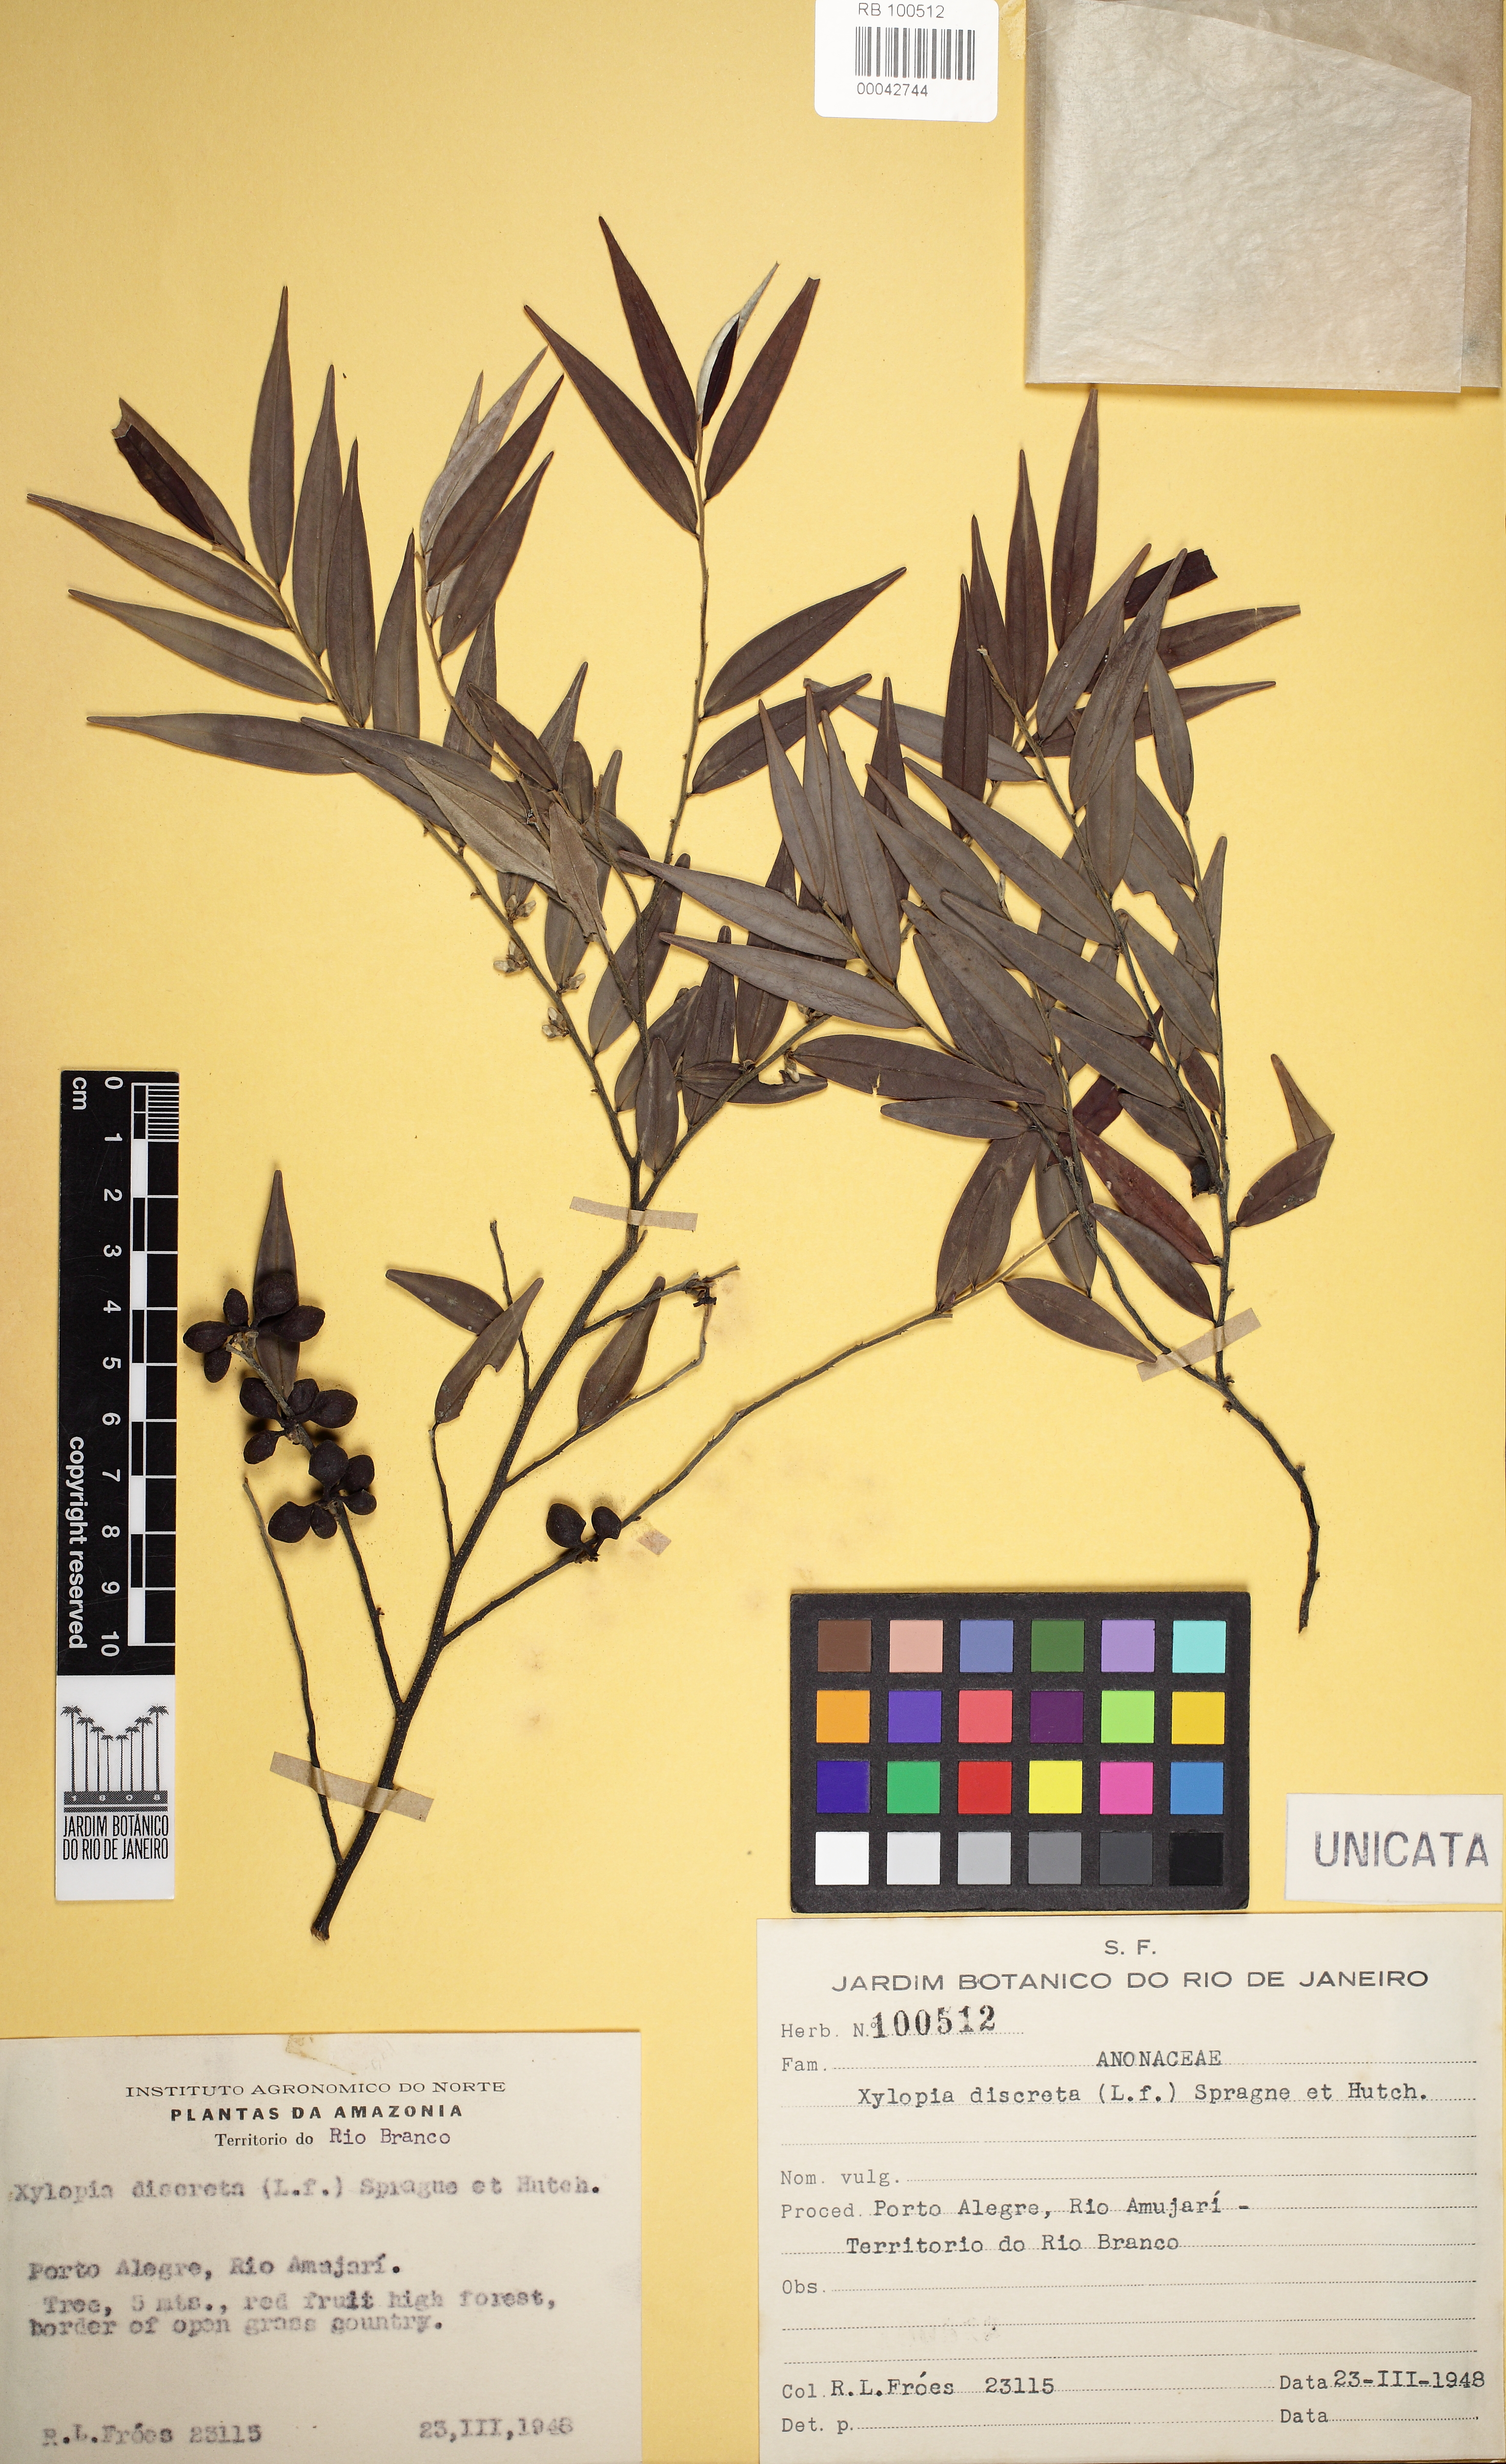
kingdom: Plantae
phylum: Tracheophyta
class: Magnoliopsida
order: Magnoliales
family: Annonaceae
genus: Xylopia
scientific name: Xylopia discreta
